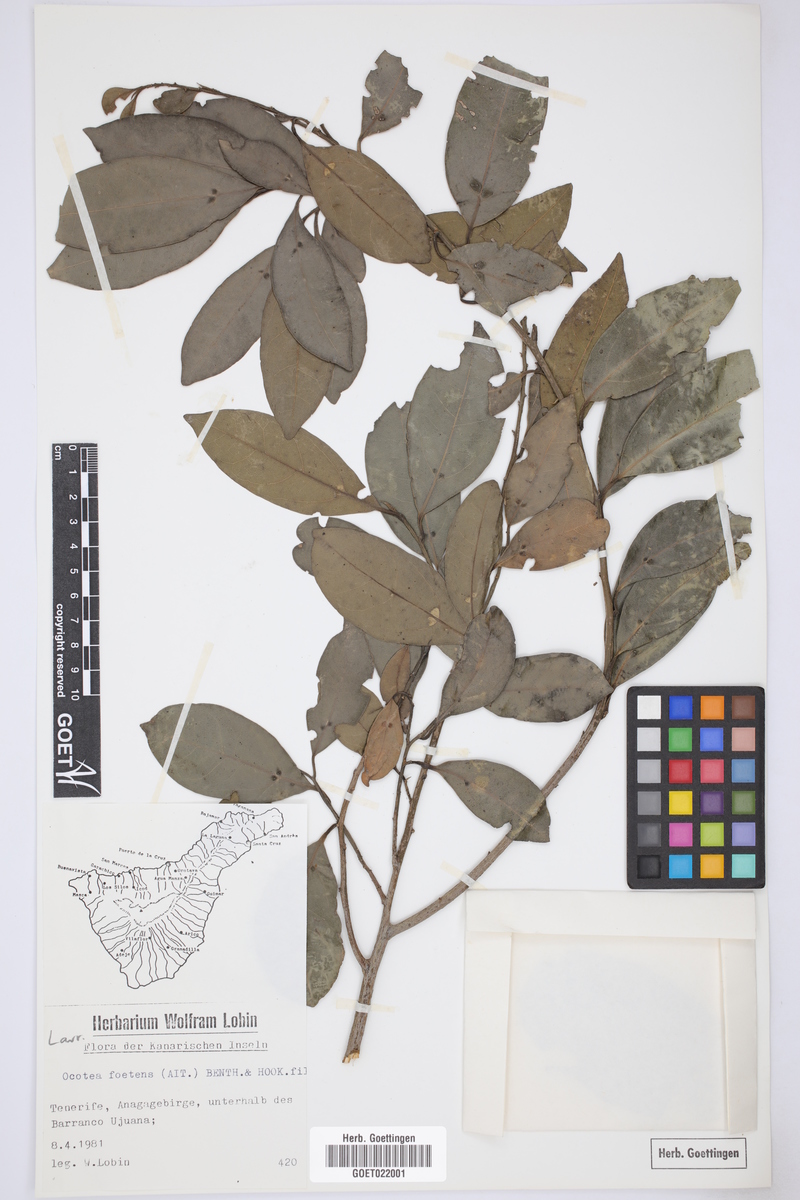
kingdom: Plantae
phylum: Tracheophyta
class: Magnoliopsida
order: Laurales
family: Lauraceae
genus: Mespilodaphne
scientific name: Mespilodaphne foetens
